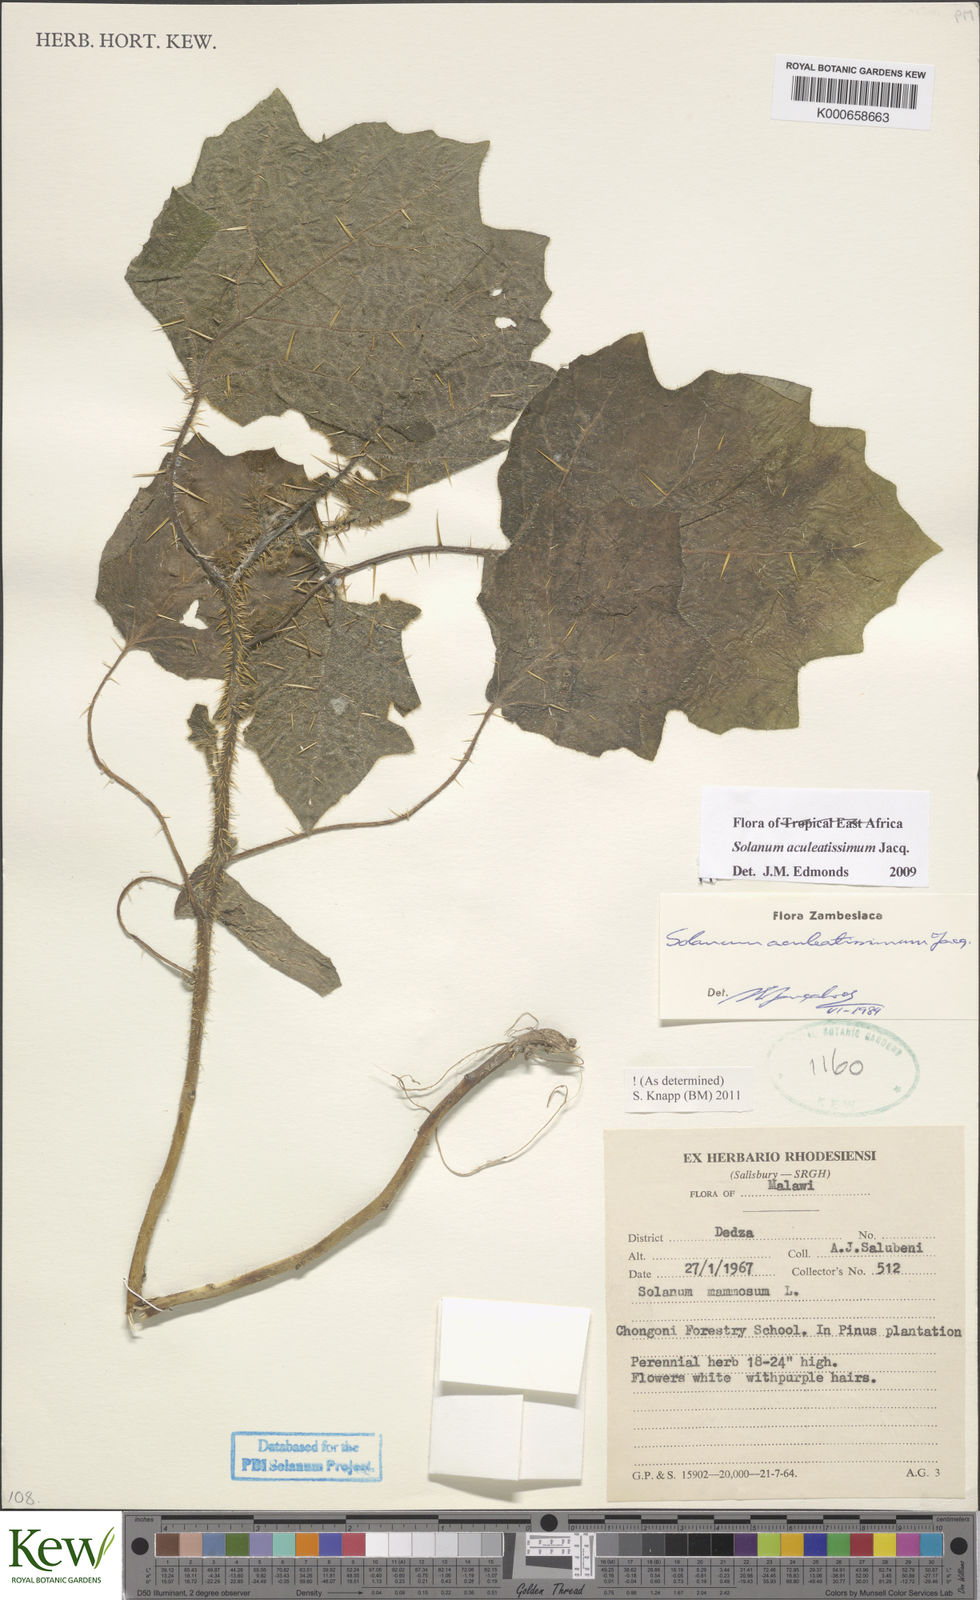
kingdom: Plantae
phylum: Tracheophyta
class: Magnoliopsida
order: Solanales
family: Solanaceae
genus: Solanum
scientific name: Solanum aculeatissimum
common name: Dutch eggplant
